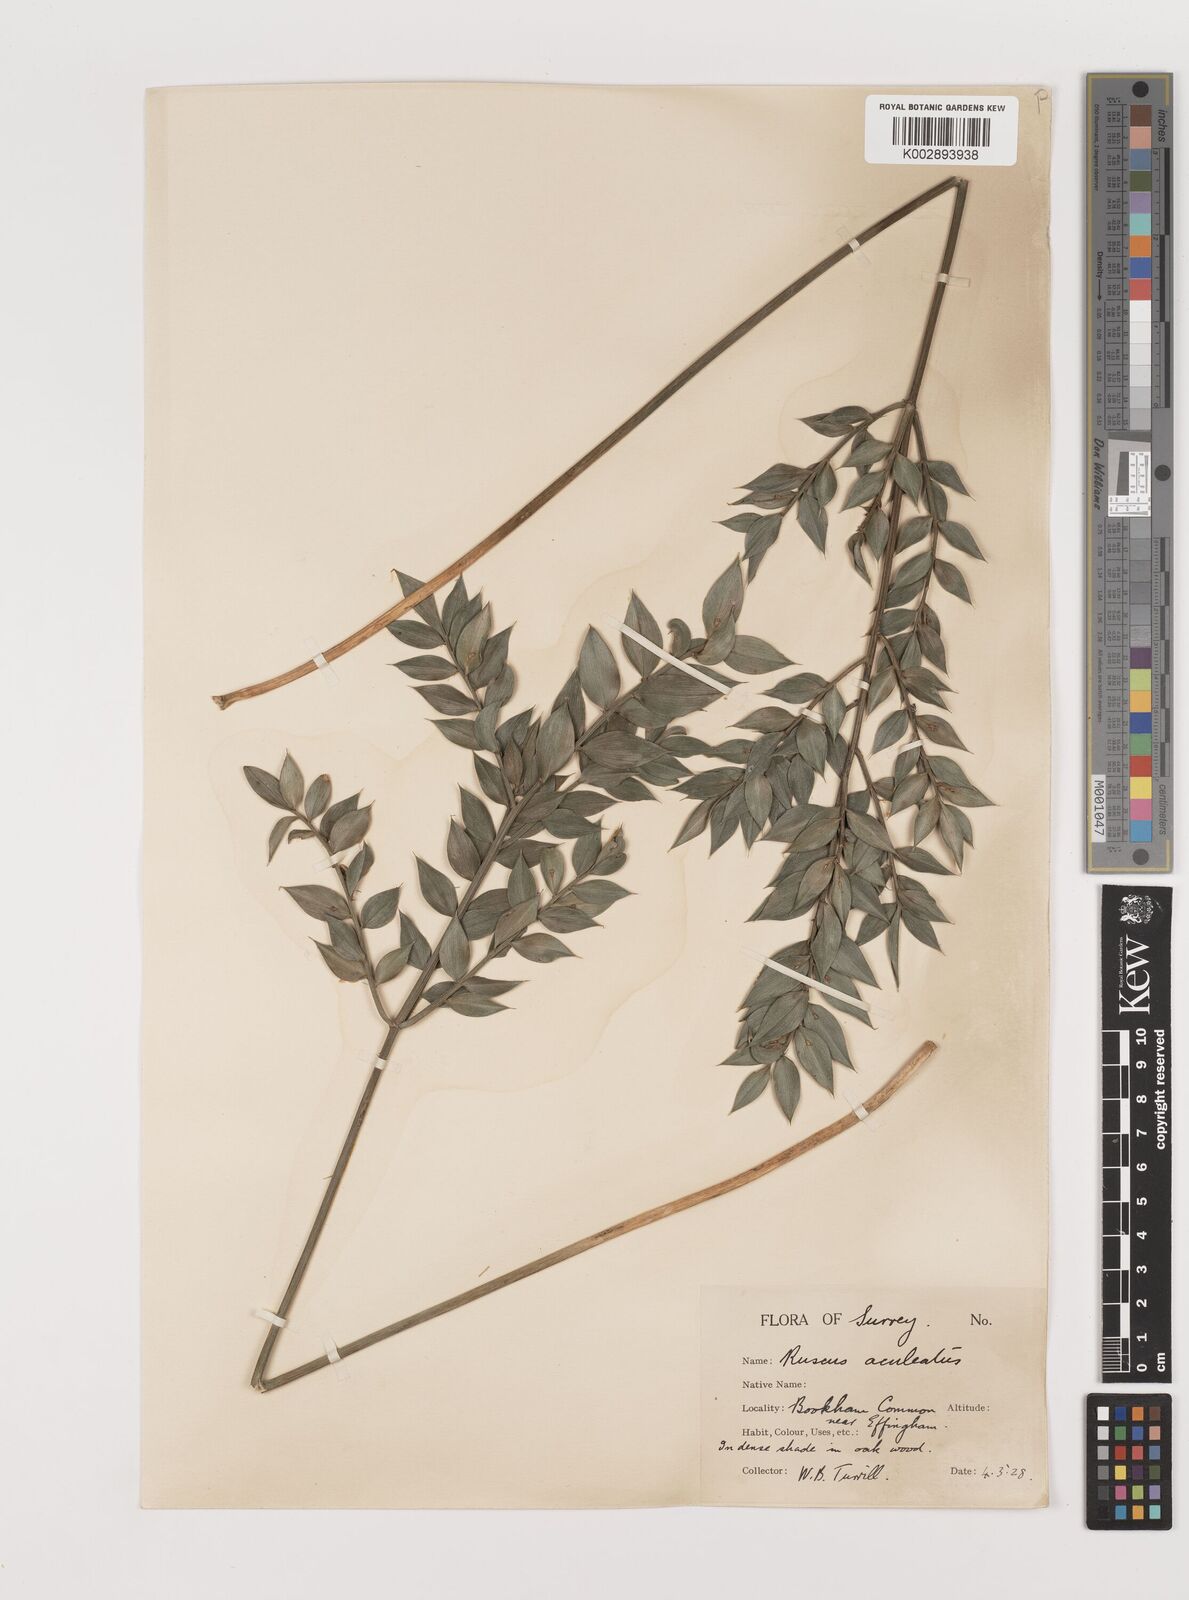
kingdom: Plantae
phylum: Tracheophyta
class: Liliopsida
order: Asparagales
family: Asparagaceae
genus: Ruscus
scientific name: Ruscus aculeatus
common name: Butcher's-broom
